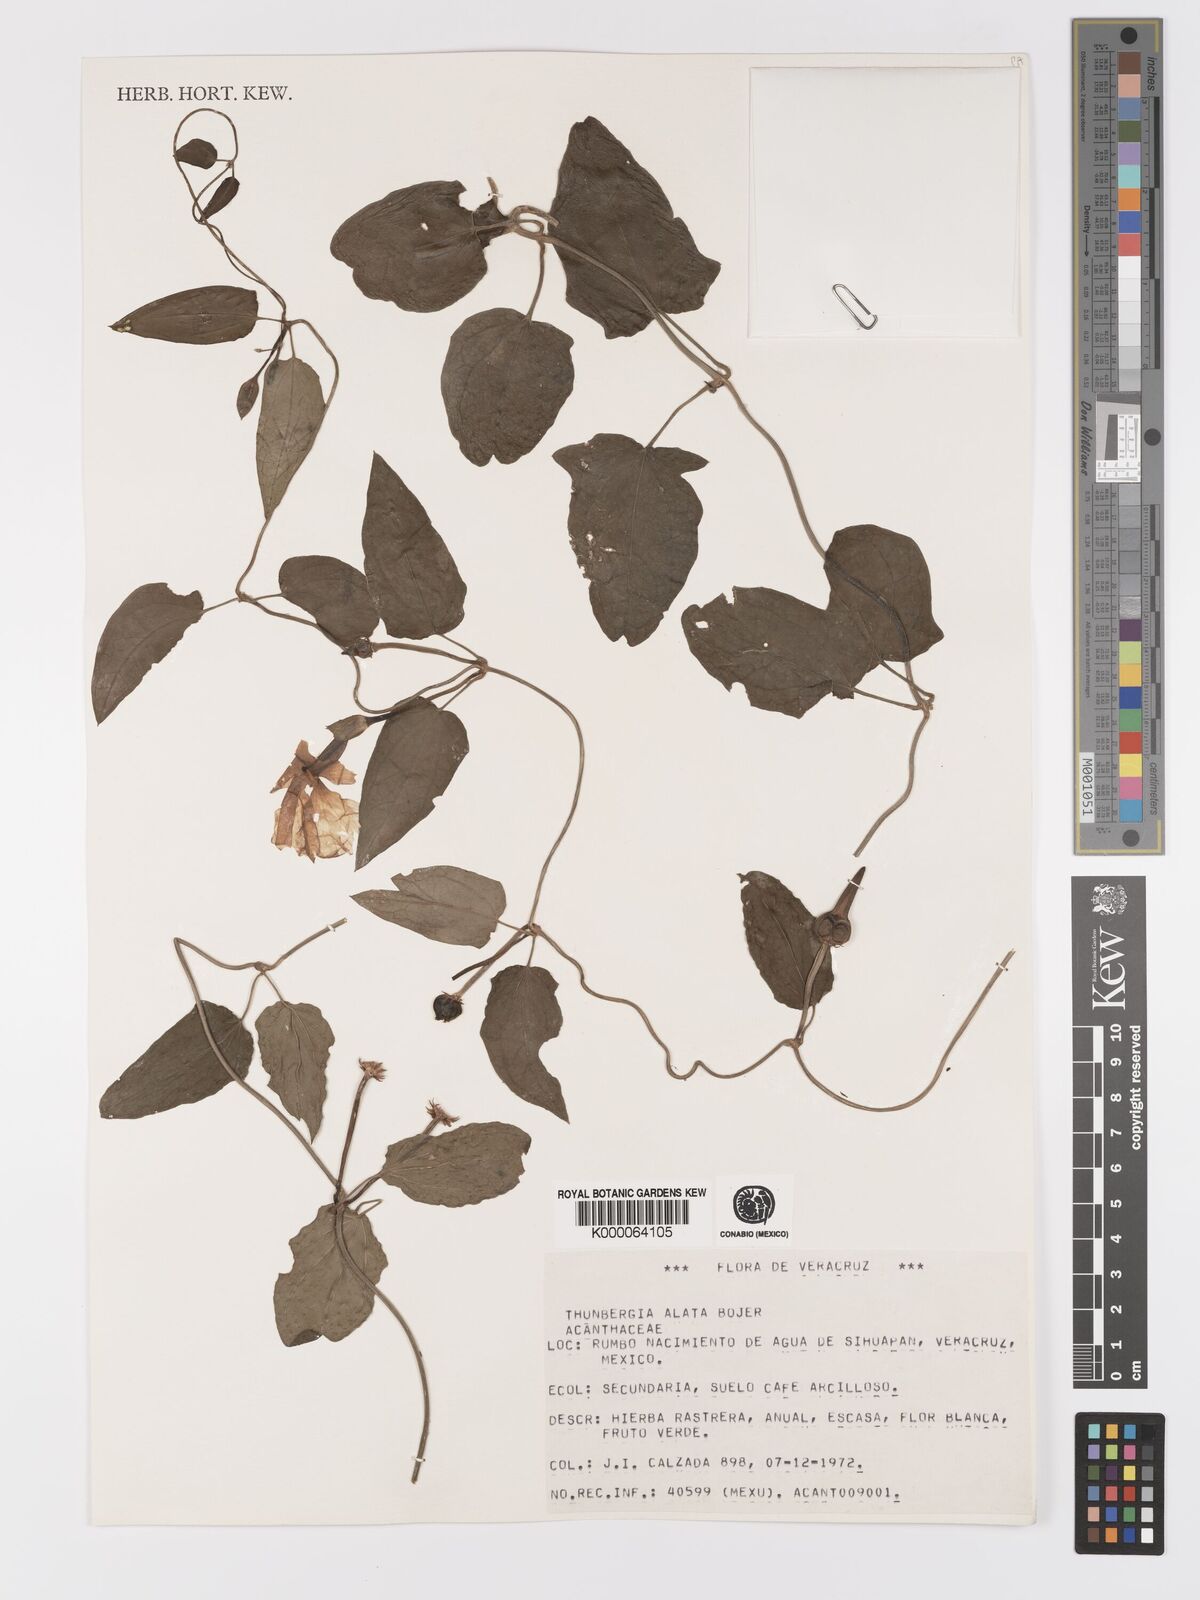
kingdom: Plantae
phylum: Tracheophyta
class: Magnoliopsida
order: Lamiales
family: Acanthaceae
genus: Thunbergia
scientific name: Thunbergia alata
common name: Blackeyed susan vine
